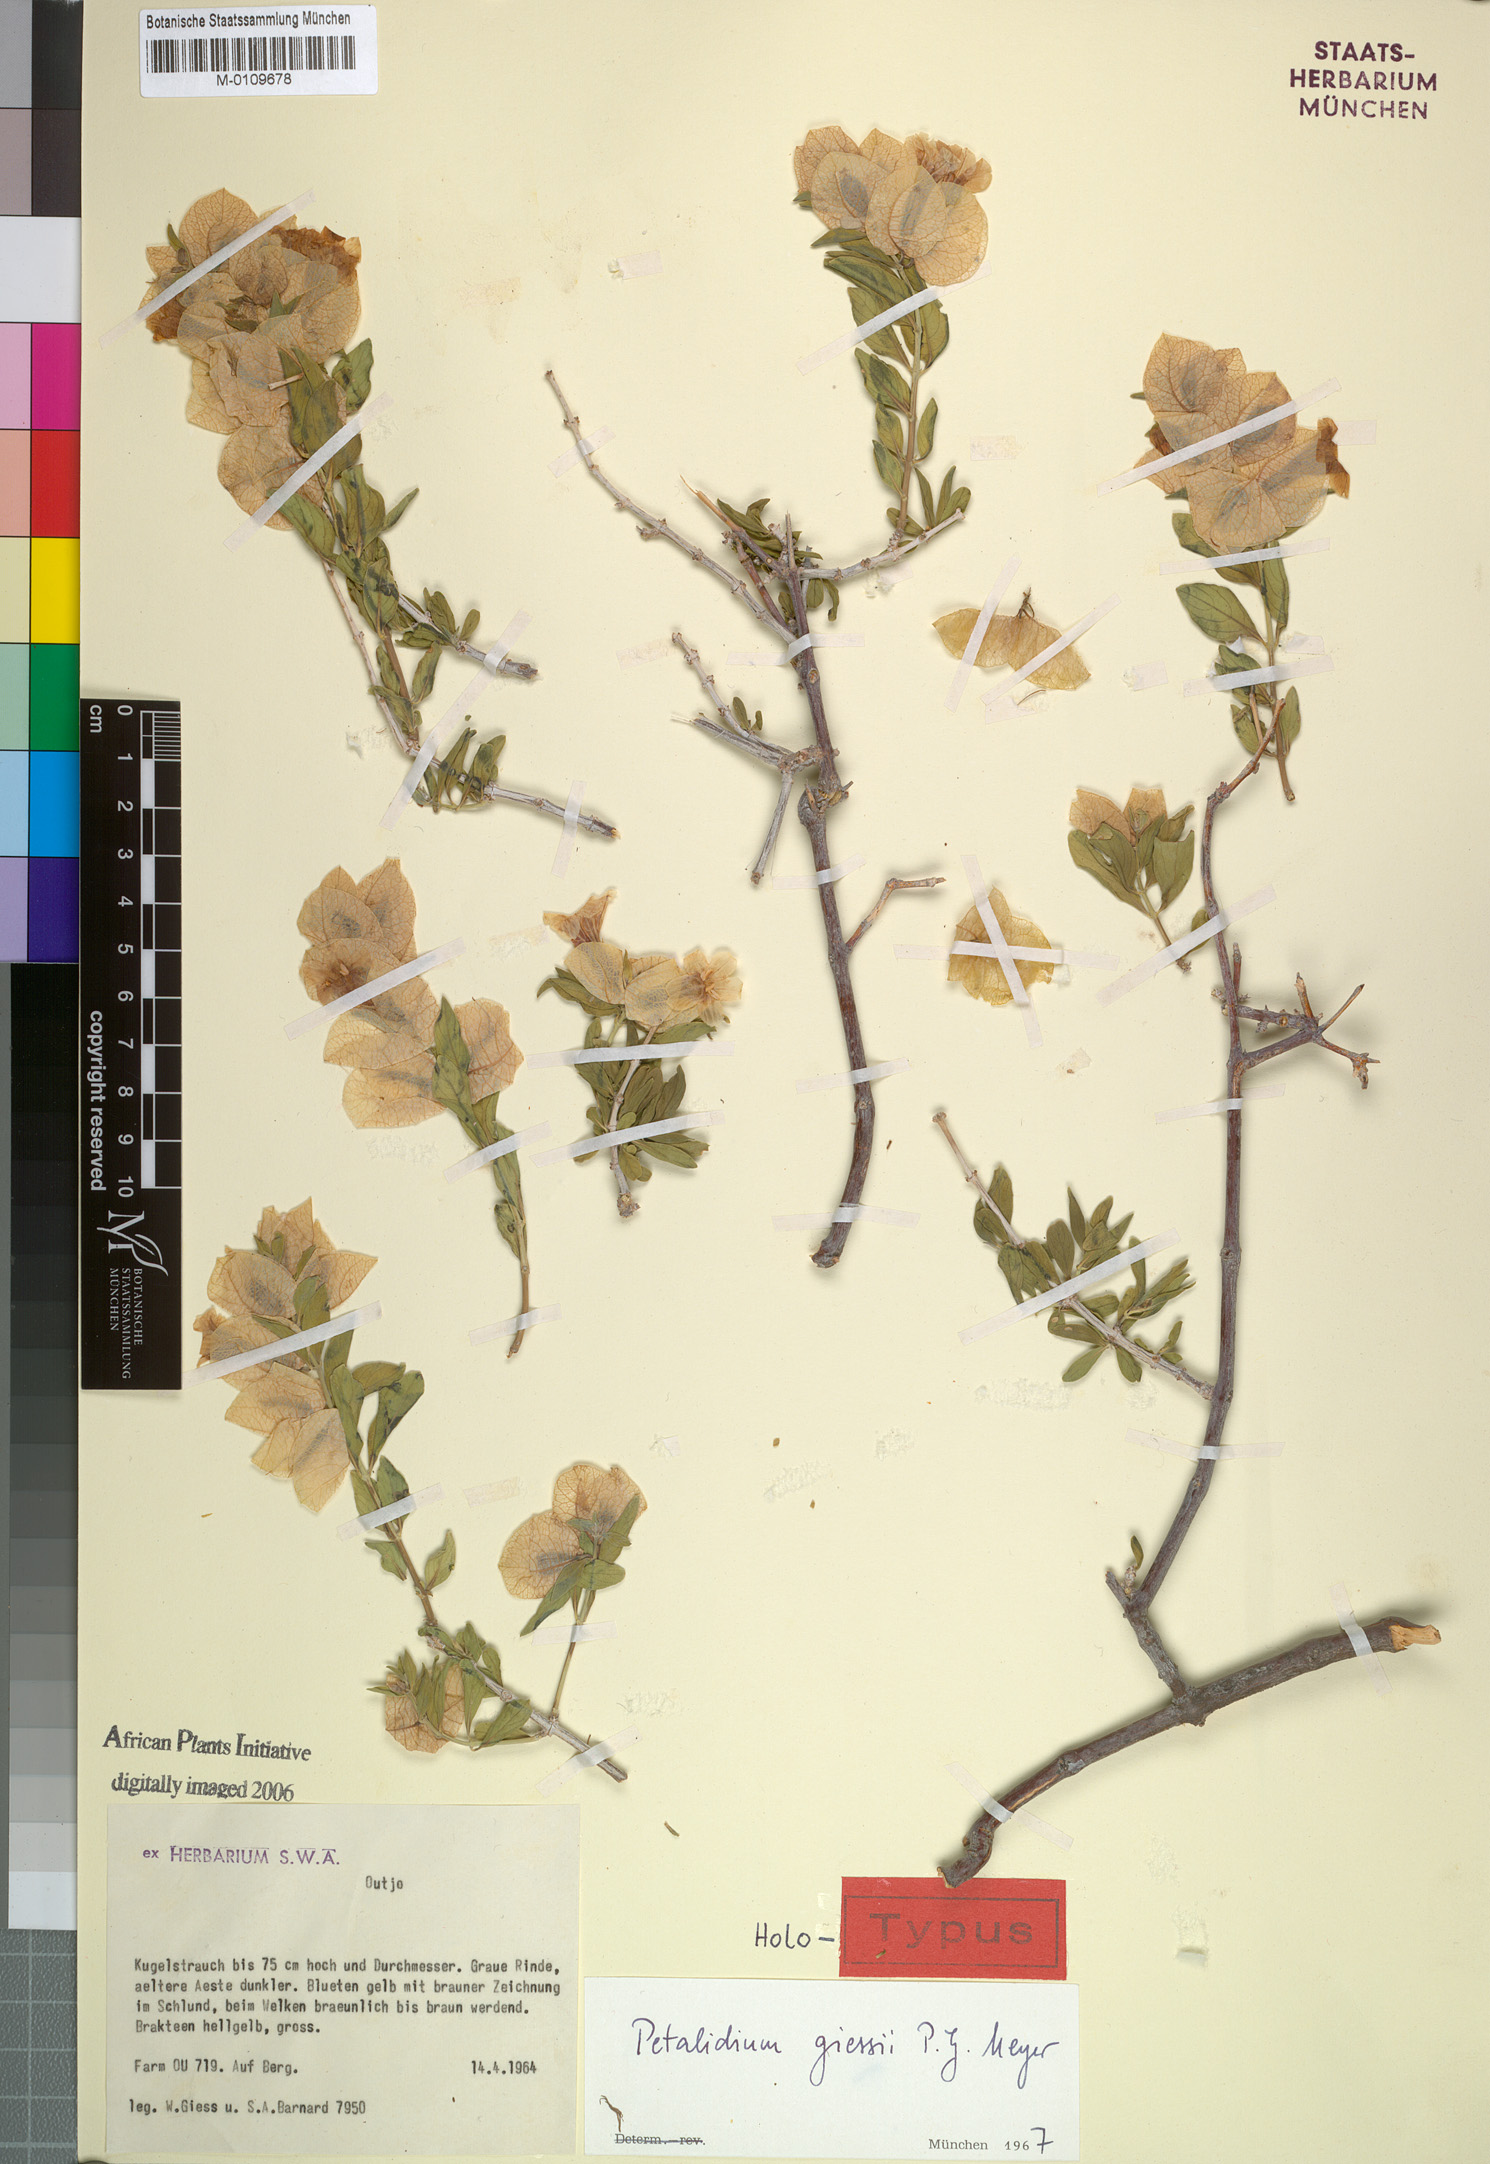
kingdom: Plantae
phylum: Tracheophyta
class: Magnoliopsida
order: Lamiales
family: Acanthaceae
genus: Petalidium
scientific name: Petalidium giessii
